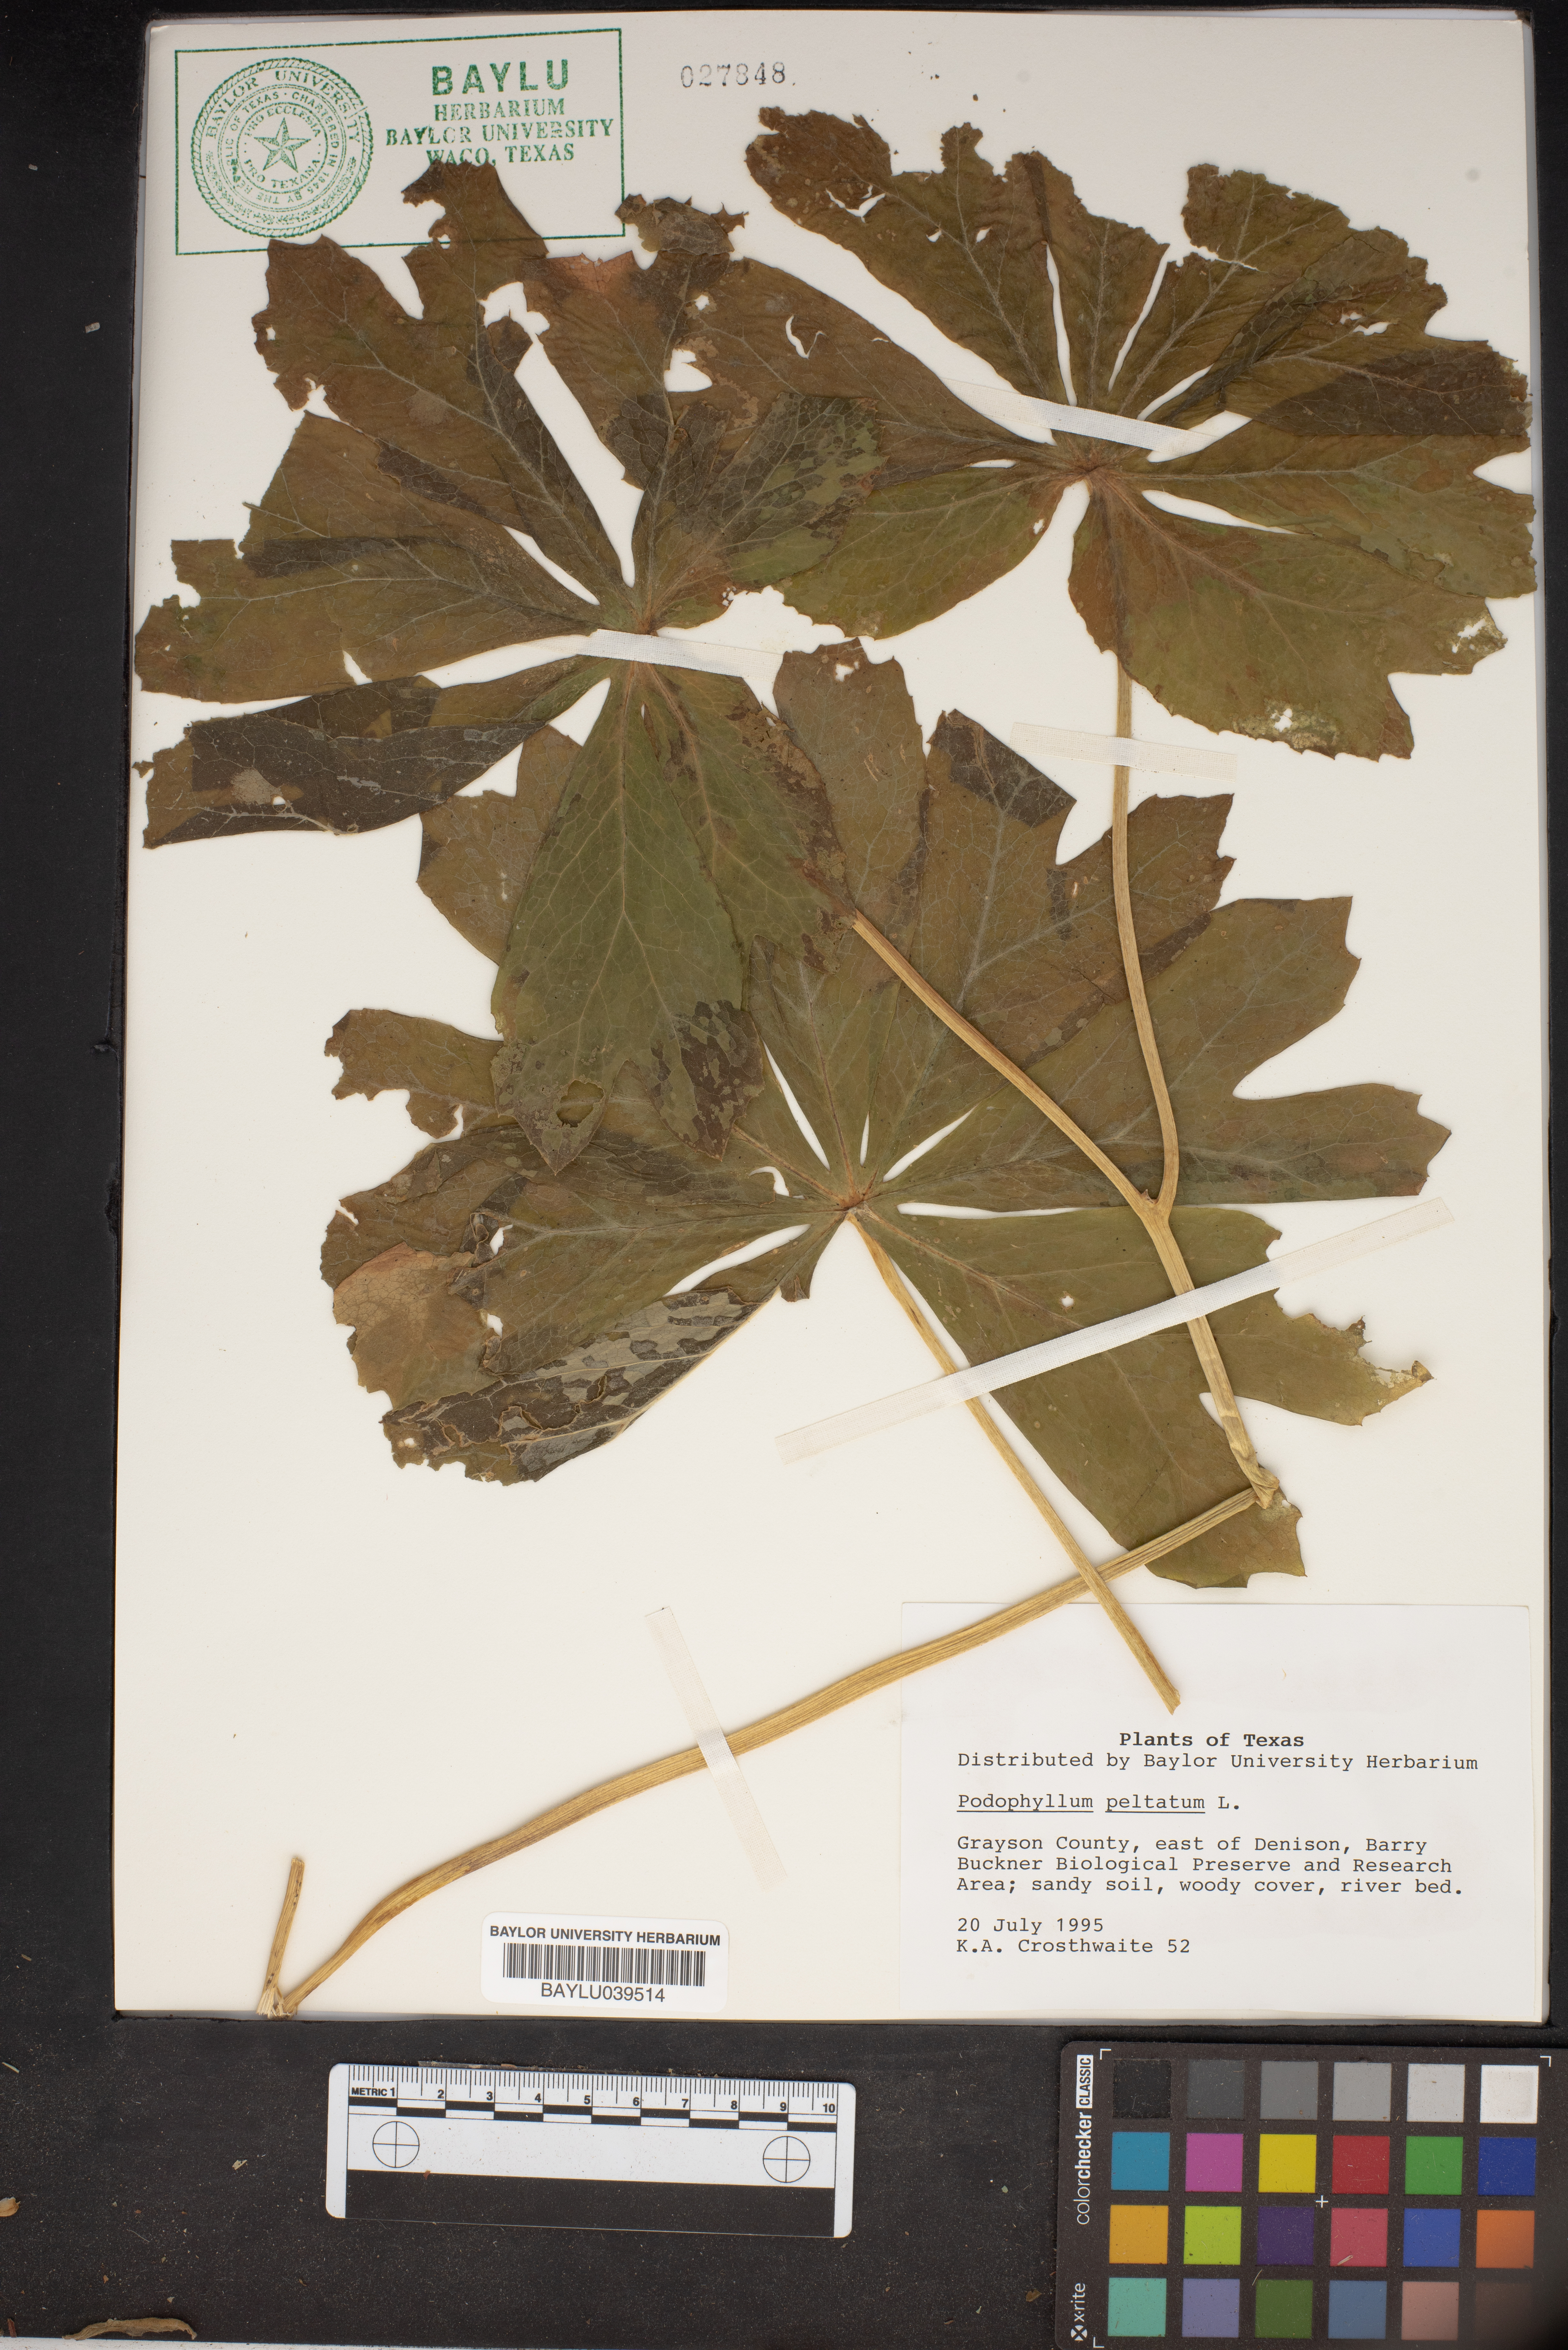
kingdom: Plantae
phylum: Tracheophyta
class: Magnoliopsida
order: Ranunculales
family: Berberidaceae
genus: Podophyllum
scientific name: Podophyllum peltatum
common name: Wild mandrake
